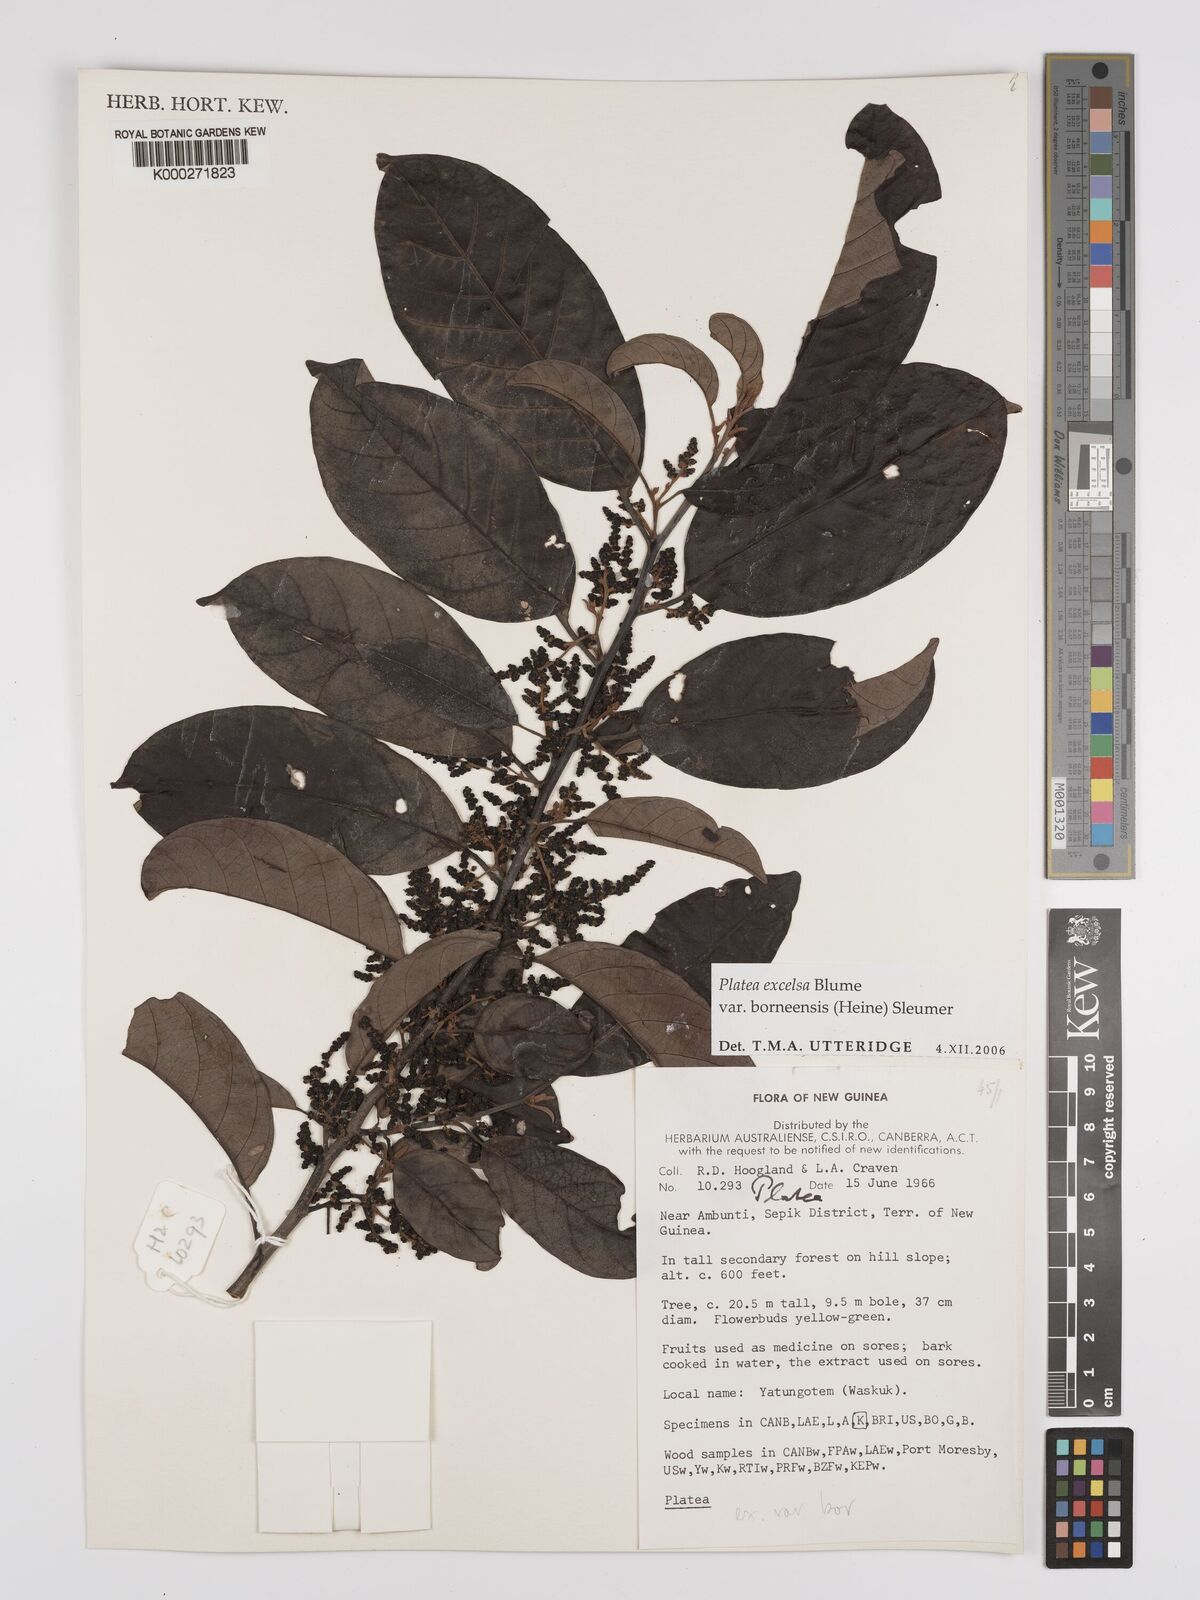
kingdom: Plantae
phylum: Tracheophyta
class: Magnoliopsida
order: Metteniusales
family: Metteniusaceae
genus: Platea
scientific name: Platea excelsa
